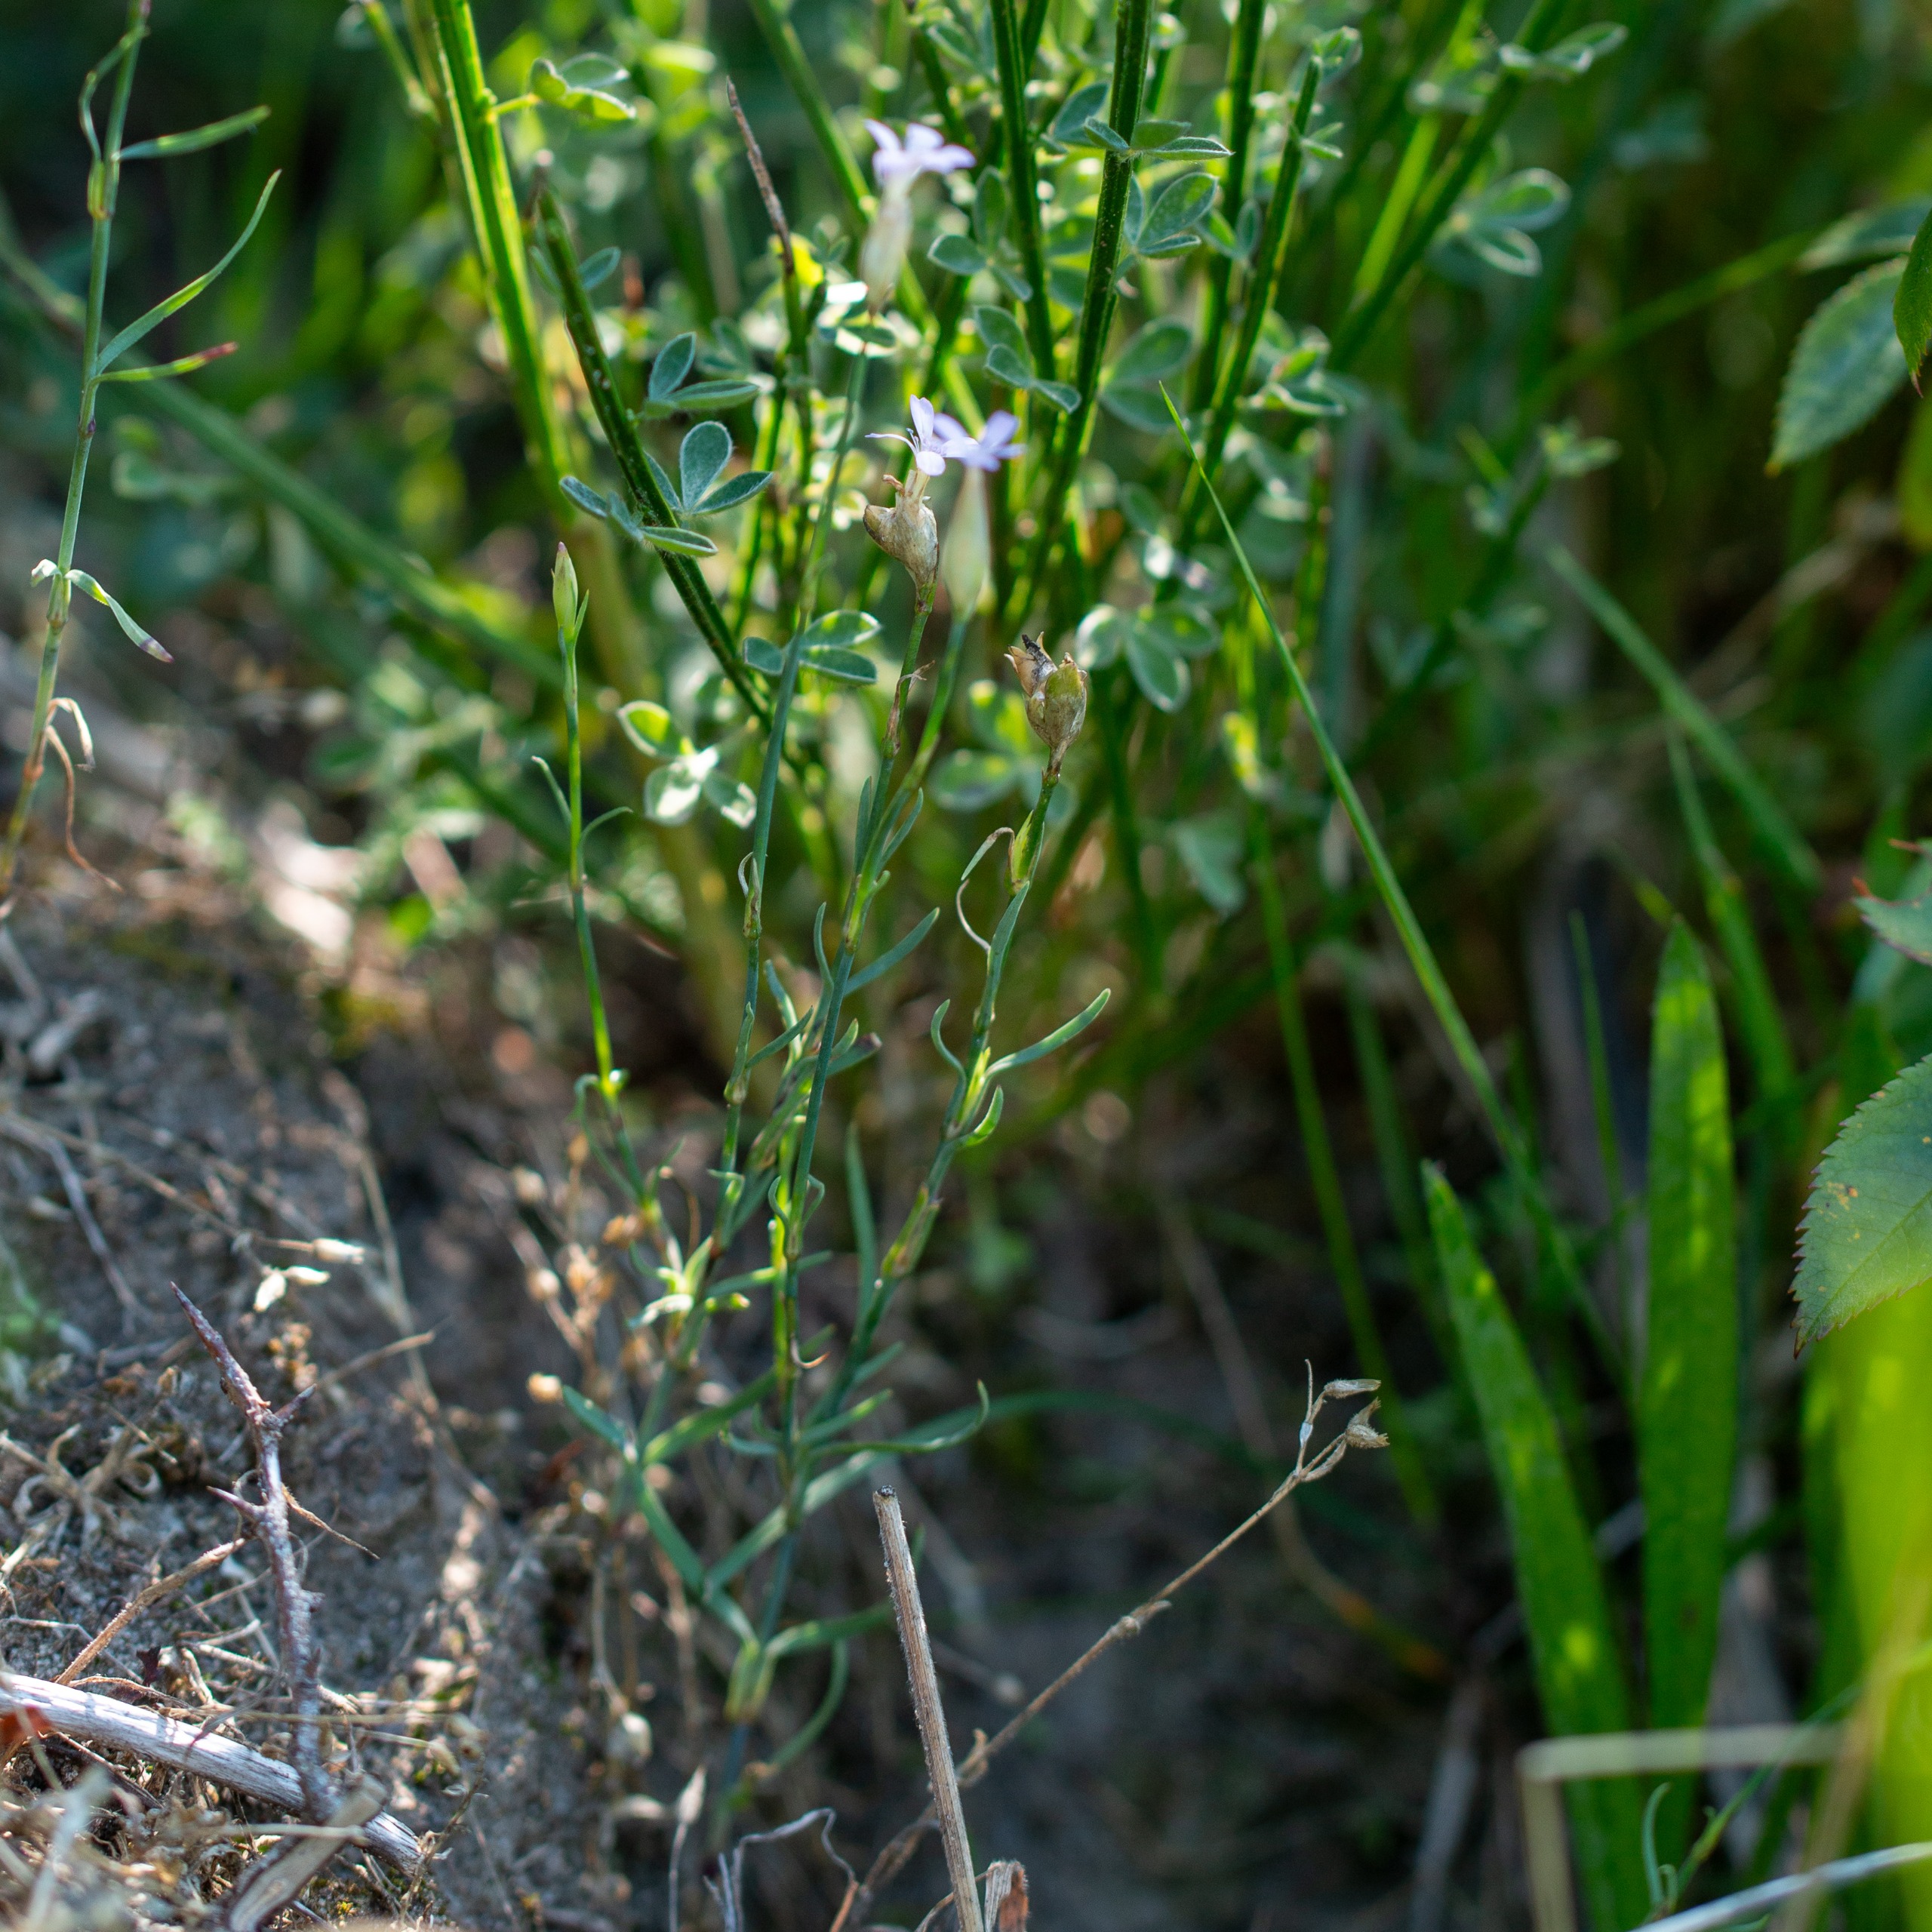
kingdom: Plantae
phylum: Tracheophyta
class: Magnoliopsida
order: Caryophyllales
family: Caryophyllaceae
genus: Petrorhagia
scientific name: Petrorhagia prolifera
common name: Knopnellike
